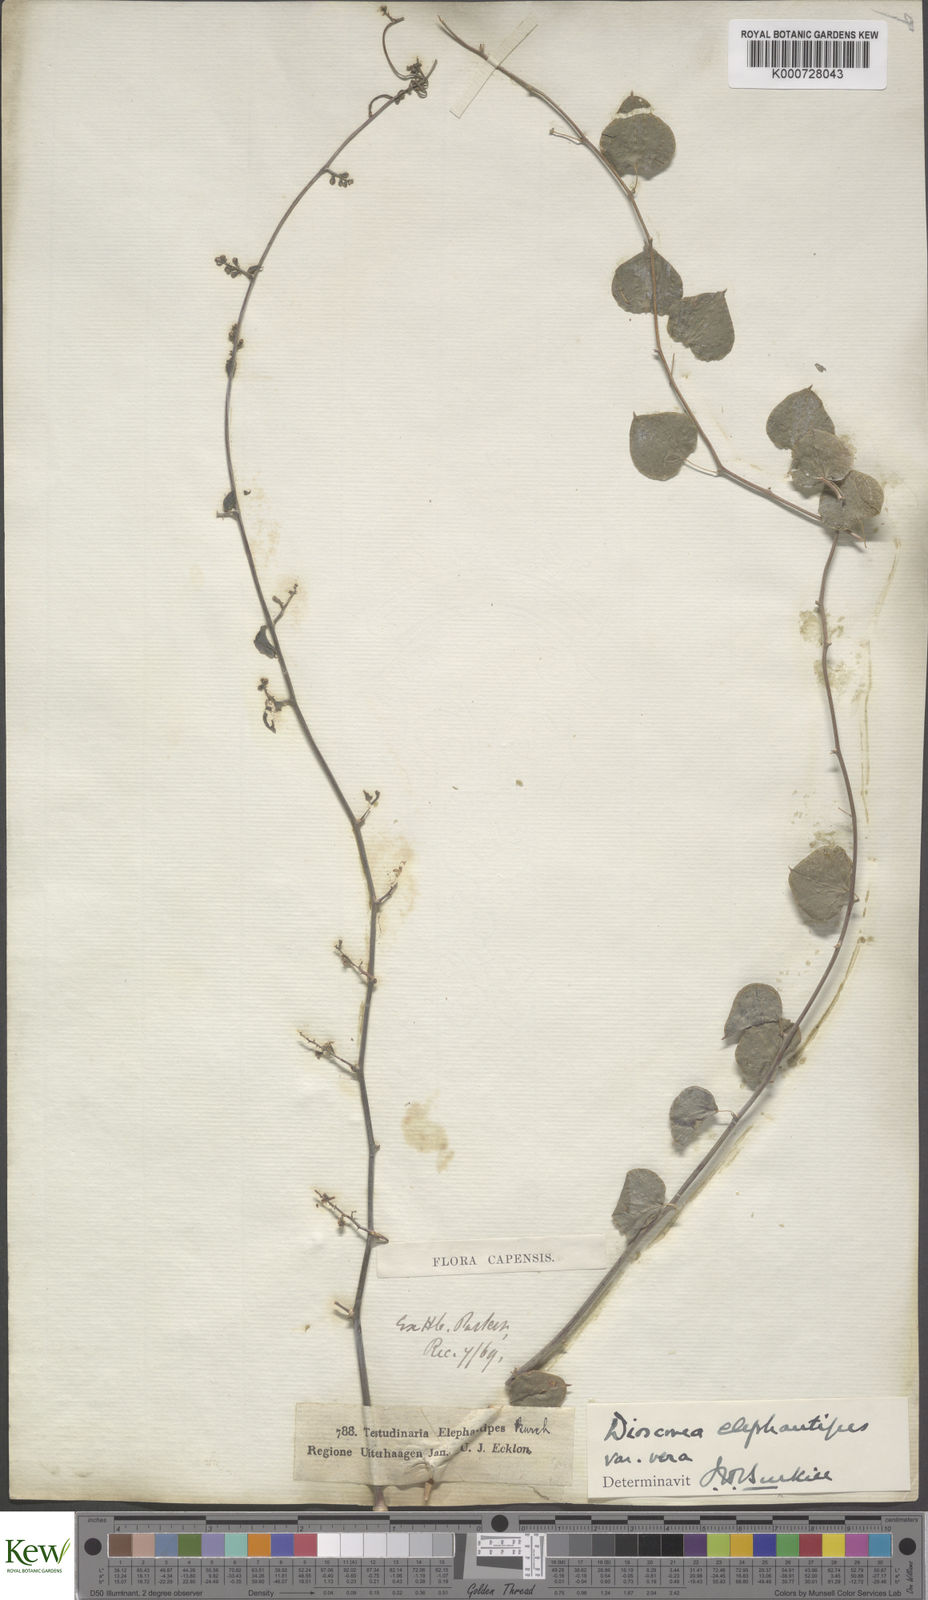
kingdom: Plantae
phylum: Tracheophyta
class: Liliopsida
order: Dioscoreales
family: Dioscoreaceae
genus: Dioscorea
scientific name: Dioscorea
